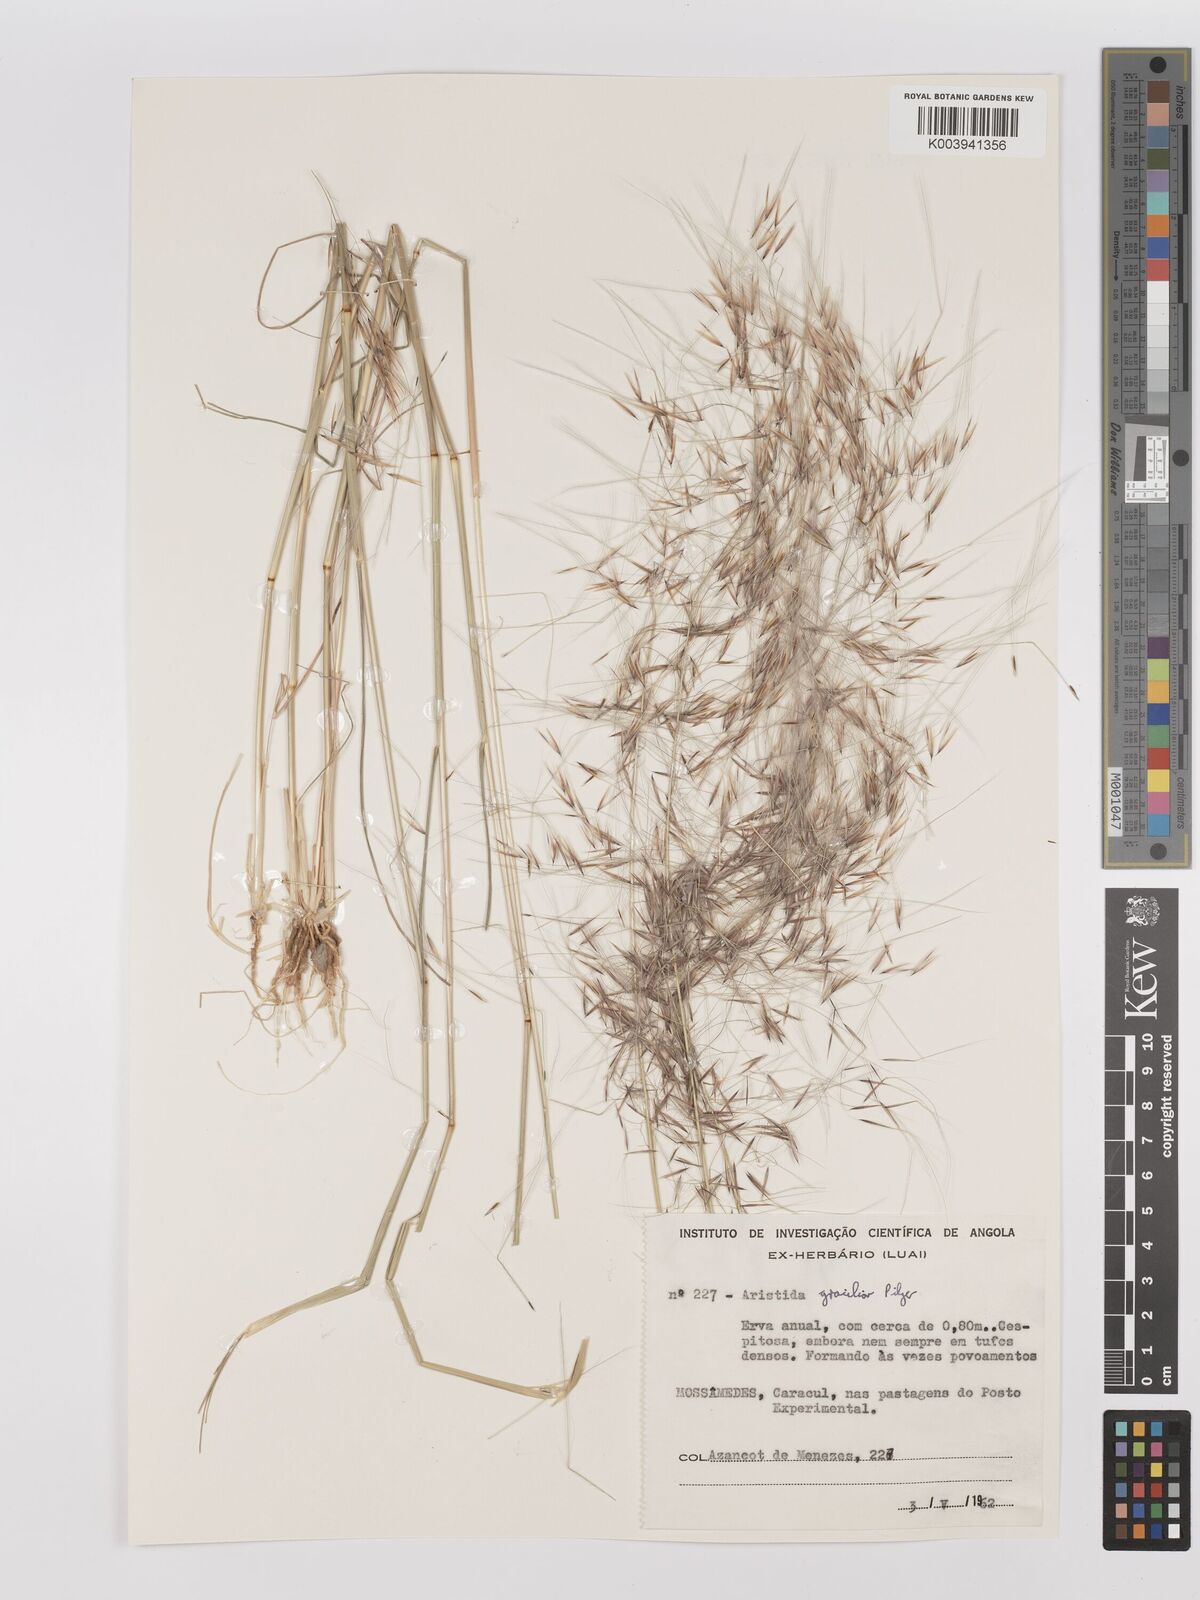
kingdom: Plantae
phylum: Tracheophyta
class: Liliopsida
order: Poales
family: Poaceae
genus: Stipagrostis
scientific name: Stipagrostis hirtigluma
